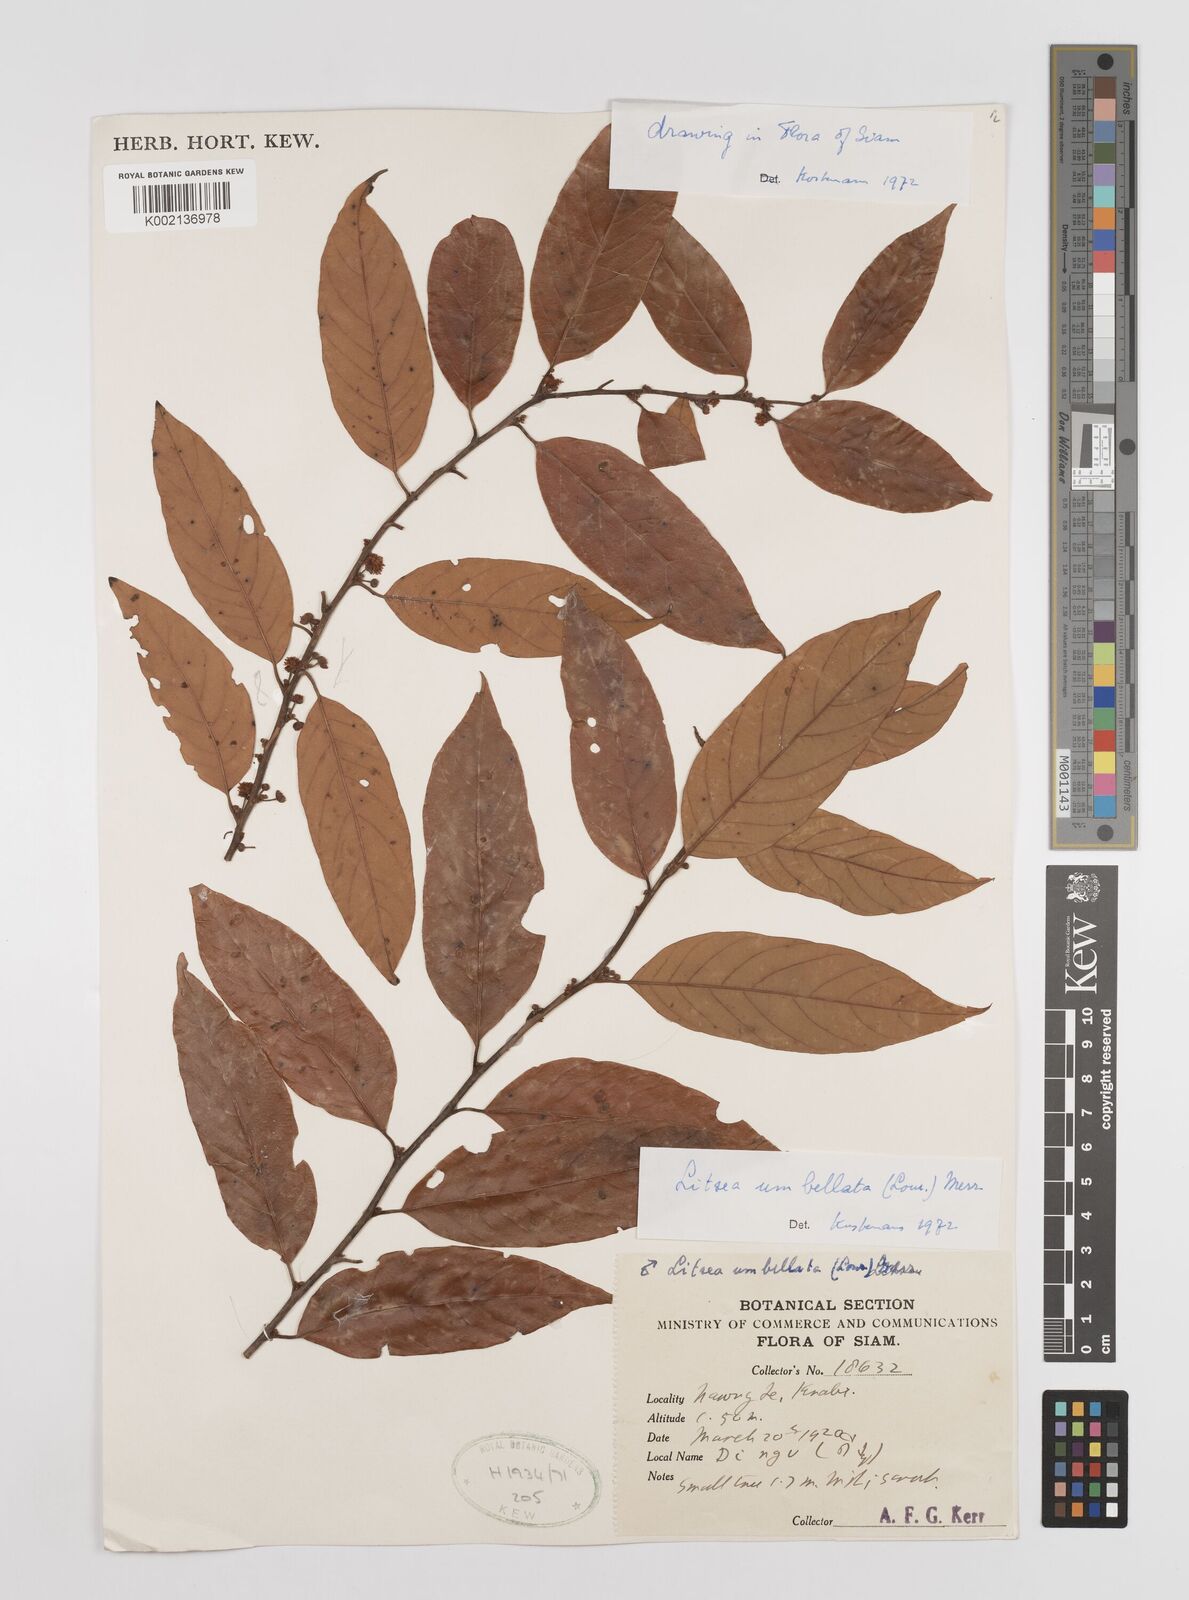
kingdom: Plantae
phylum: Tracheophyta
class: Magnoliopsida
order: Laurales
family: Lauraceae
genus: Litsea
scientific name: Litsea umbellata
